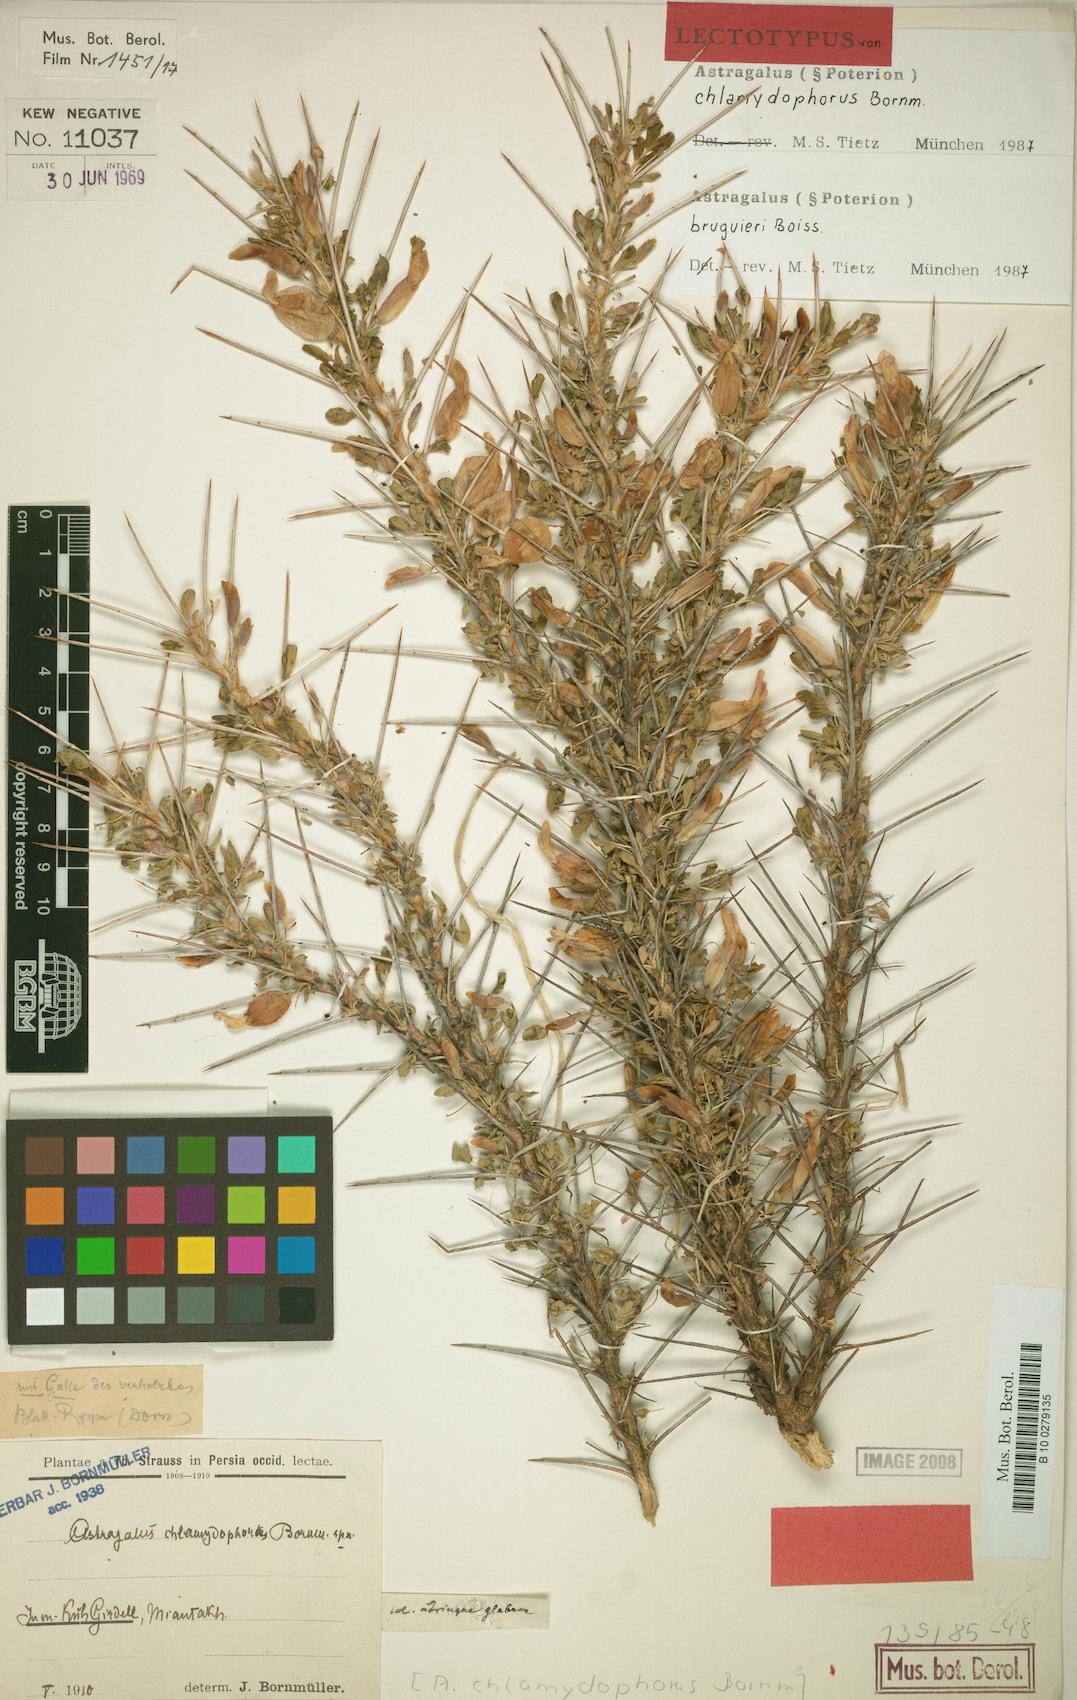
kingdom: Plantae
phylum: Tracheophyta
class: Magnoliopsida
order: Fabales
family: Fabaceae
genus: Astragalus
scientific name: Astragalus bruguieri
